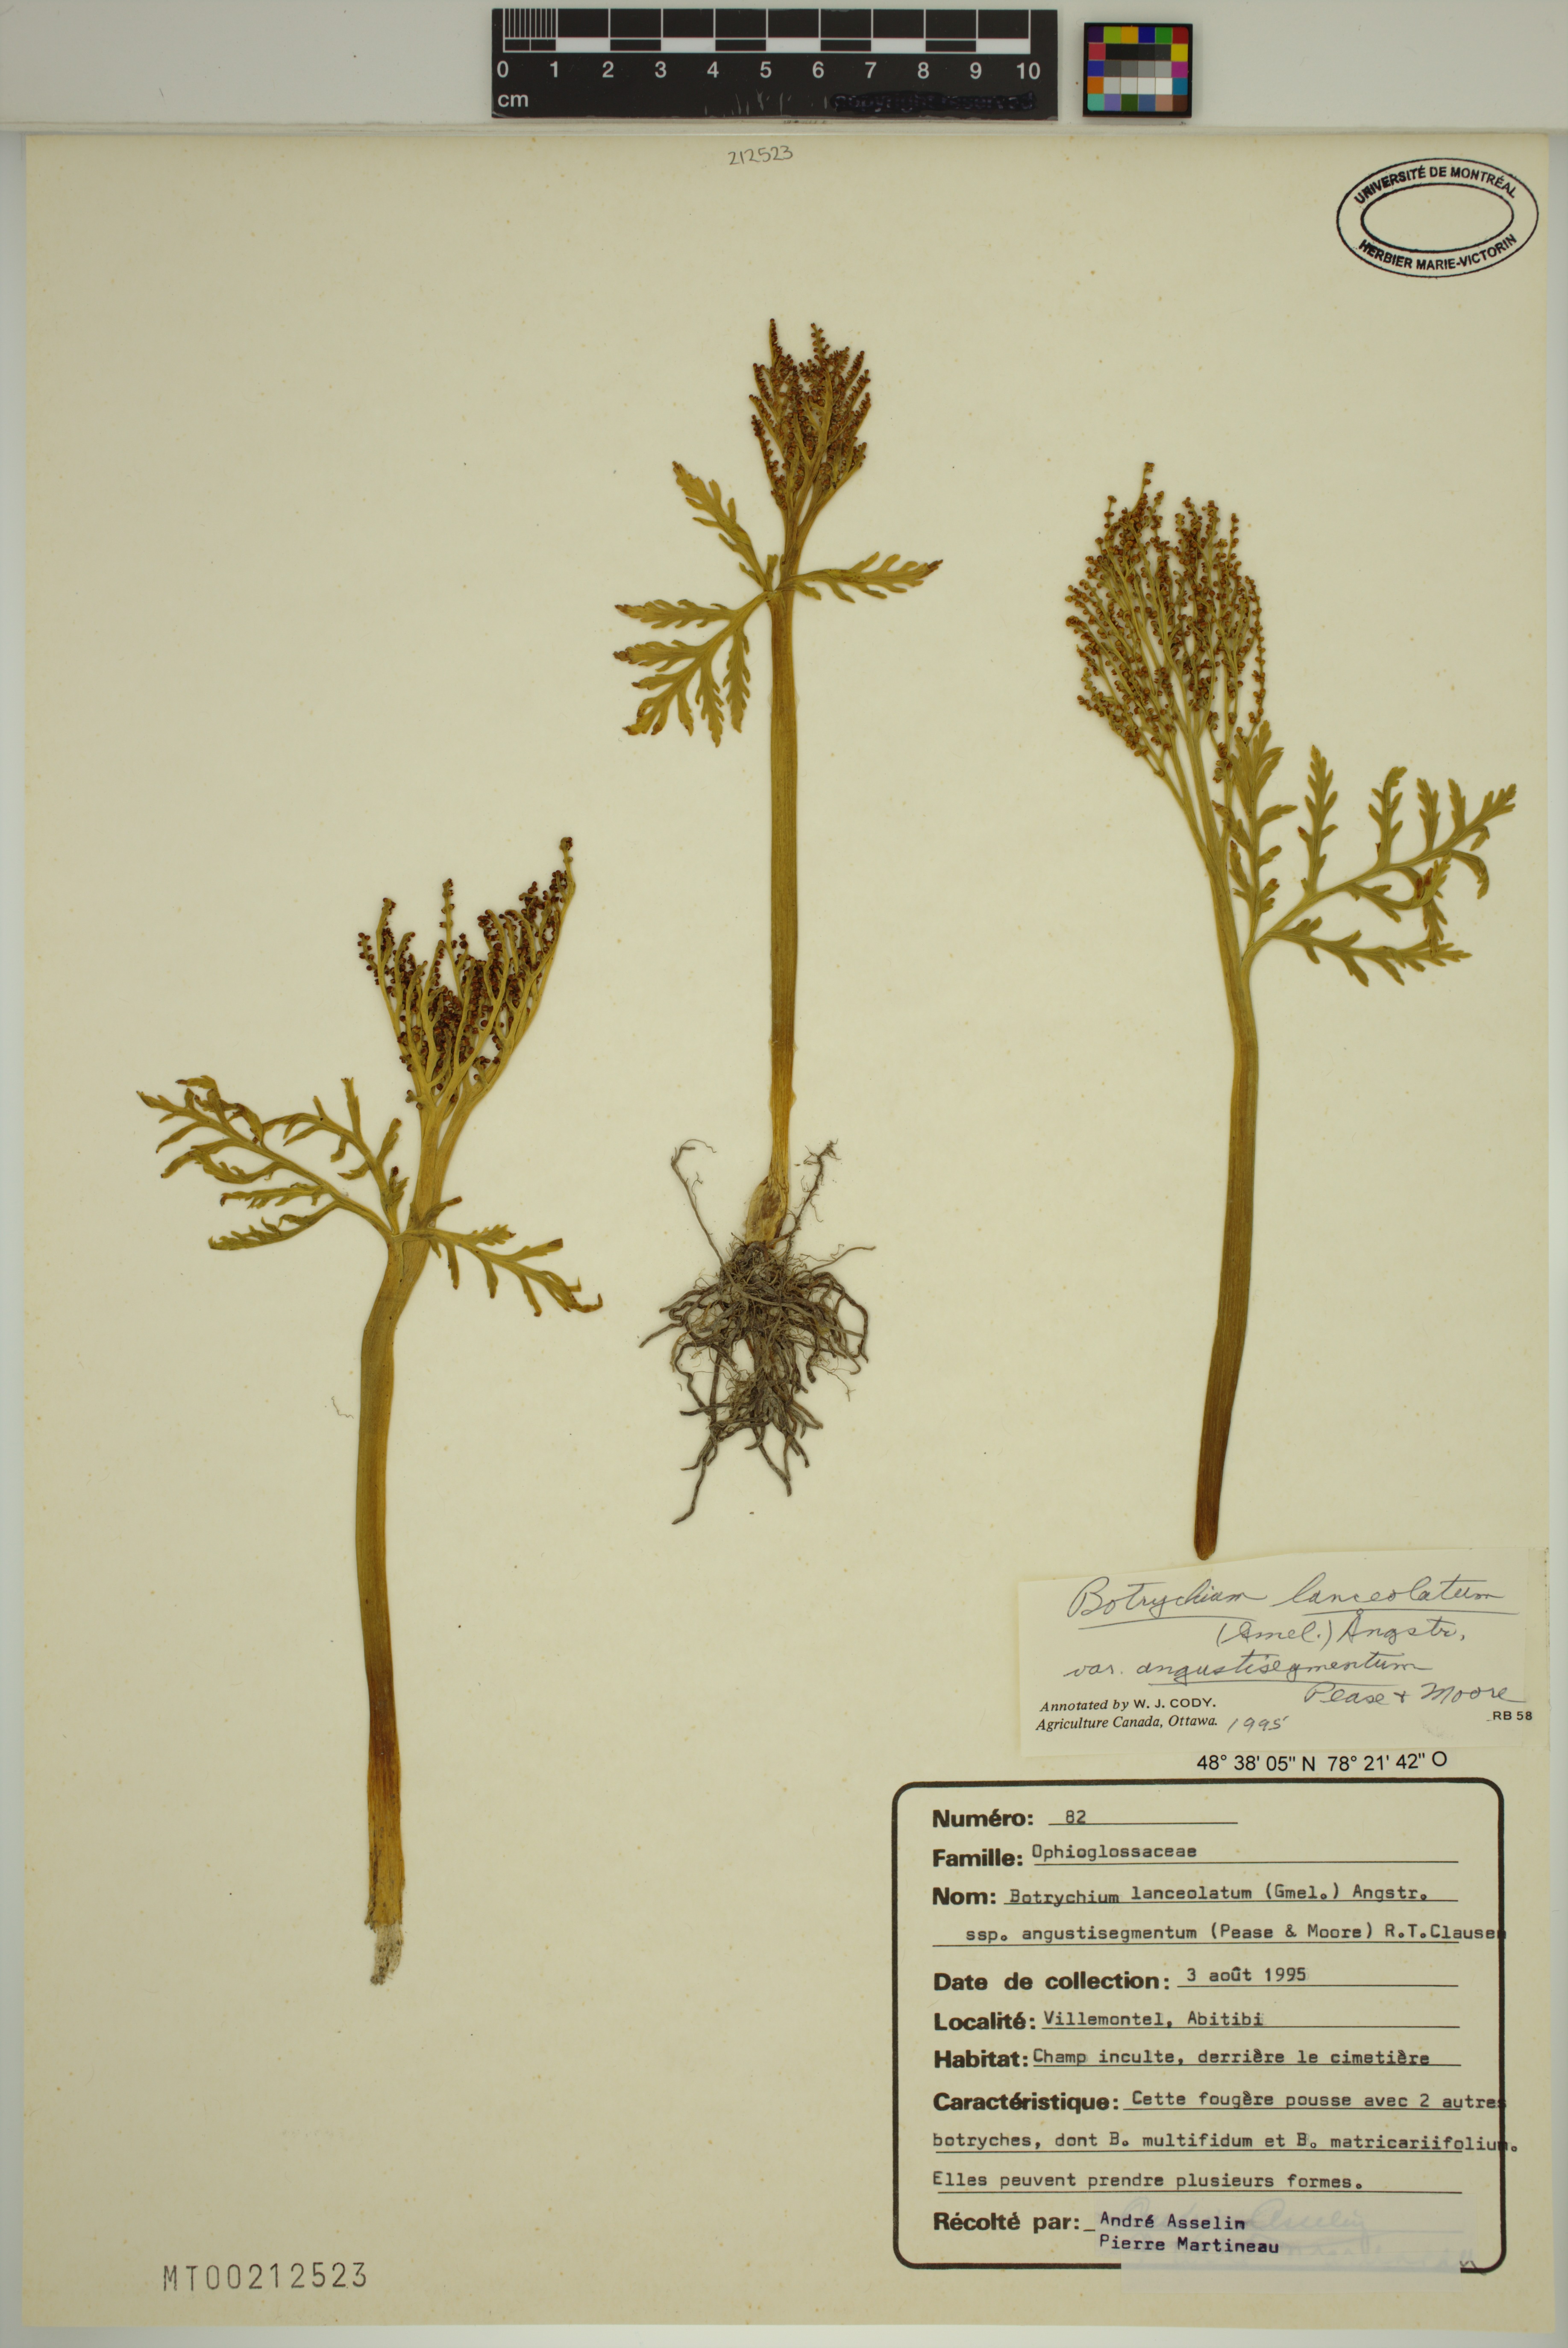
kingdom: Plantae
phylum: Tracheophyta
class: Polypodiopsida
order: Ophioglossales
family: Ophioglossaceae
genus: Botrychium
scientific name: Botrychium angustisegmentum
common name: Narrow triangle moonwort
